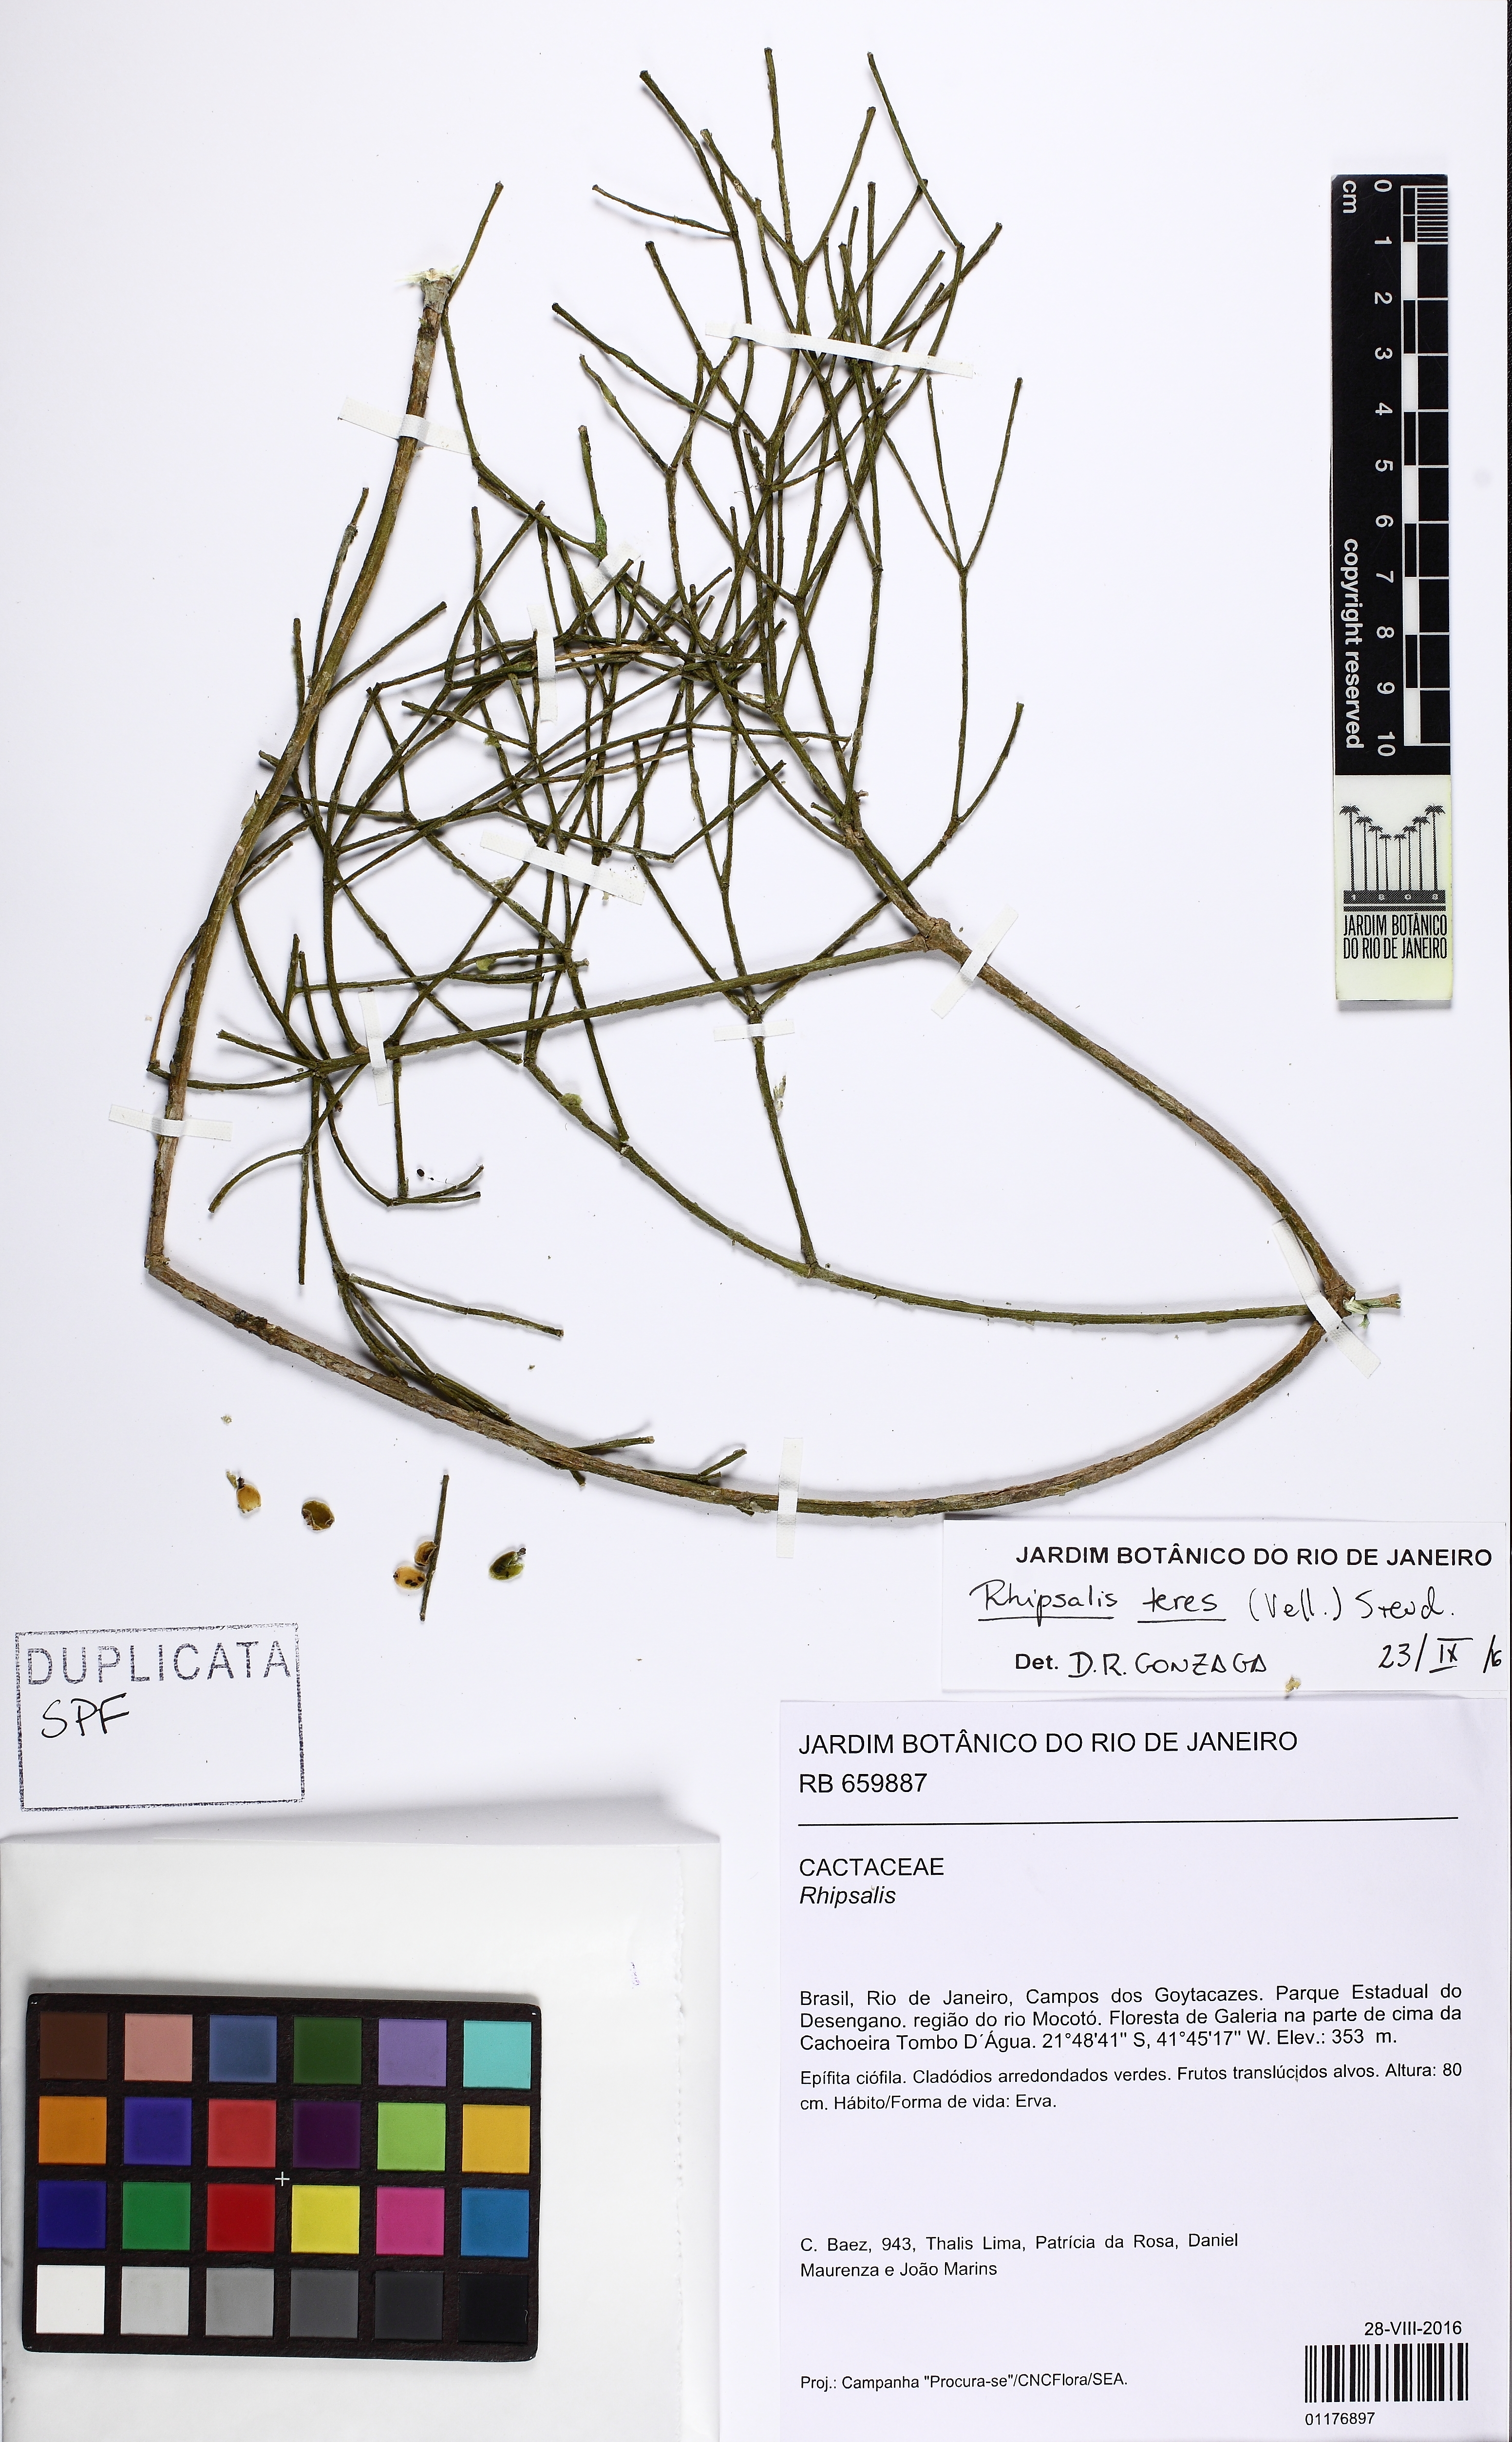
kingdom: Plantae
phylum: Tracheophyta
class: Magnoliopsida
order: Caryophyllales
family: Cactaceae
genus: Rhipsalis
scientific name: Rhipsalis teres
